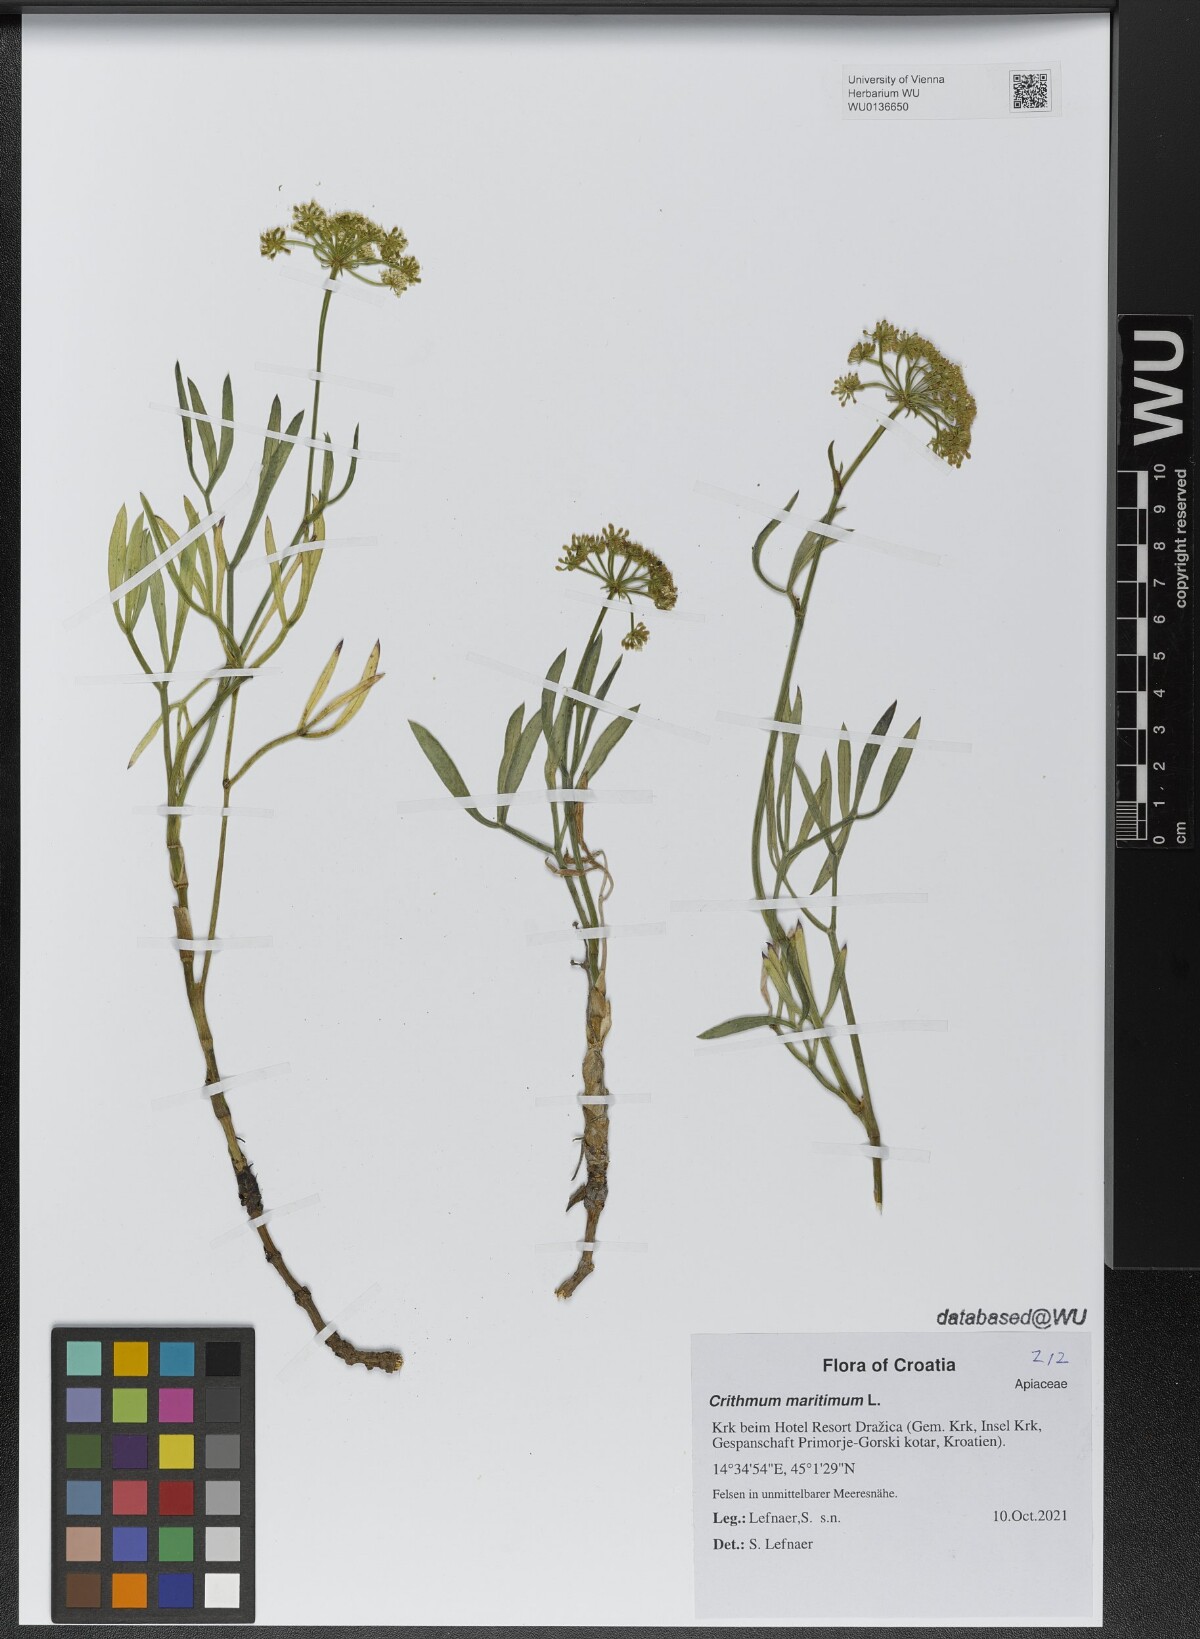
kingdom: Plantae
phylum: Tracheophyta
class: Magnoliopsida
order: Apiales
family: Apiaceae
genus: Crithmum
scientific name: Crithmum maritimum
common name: Rock samphire
